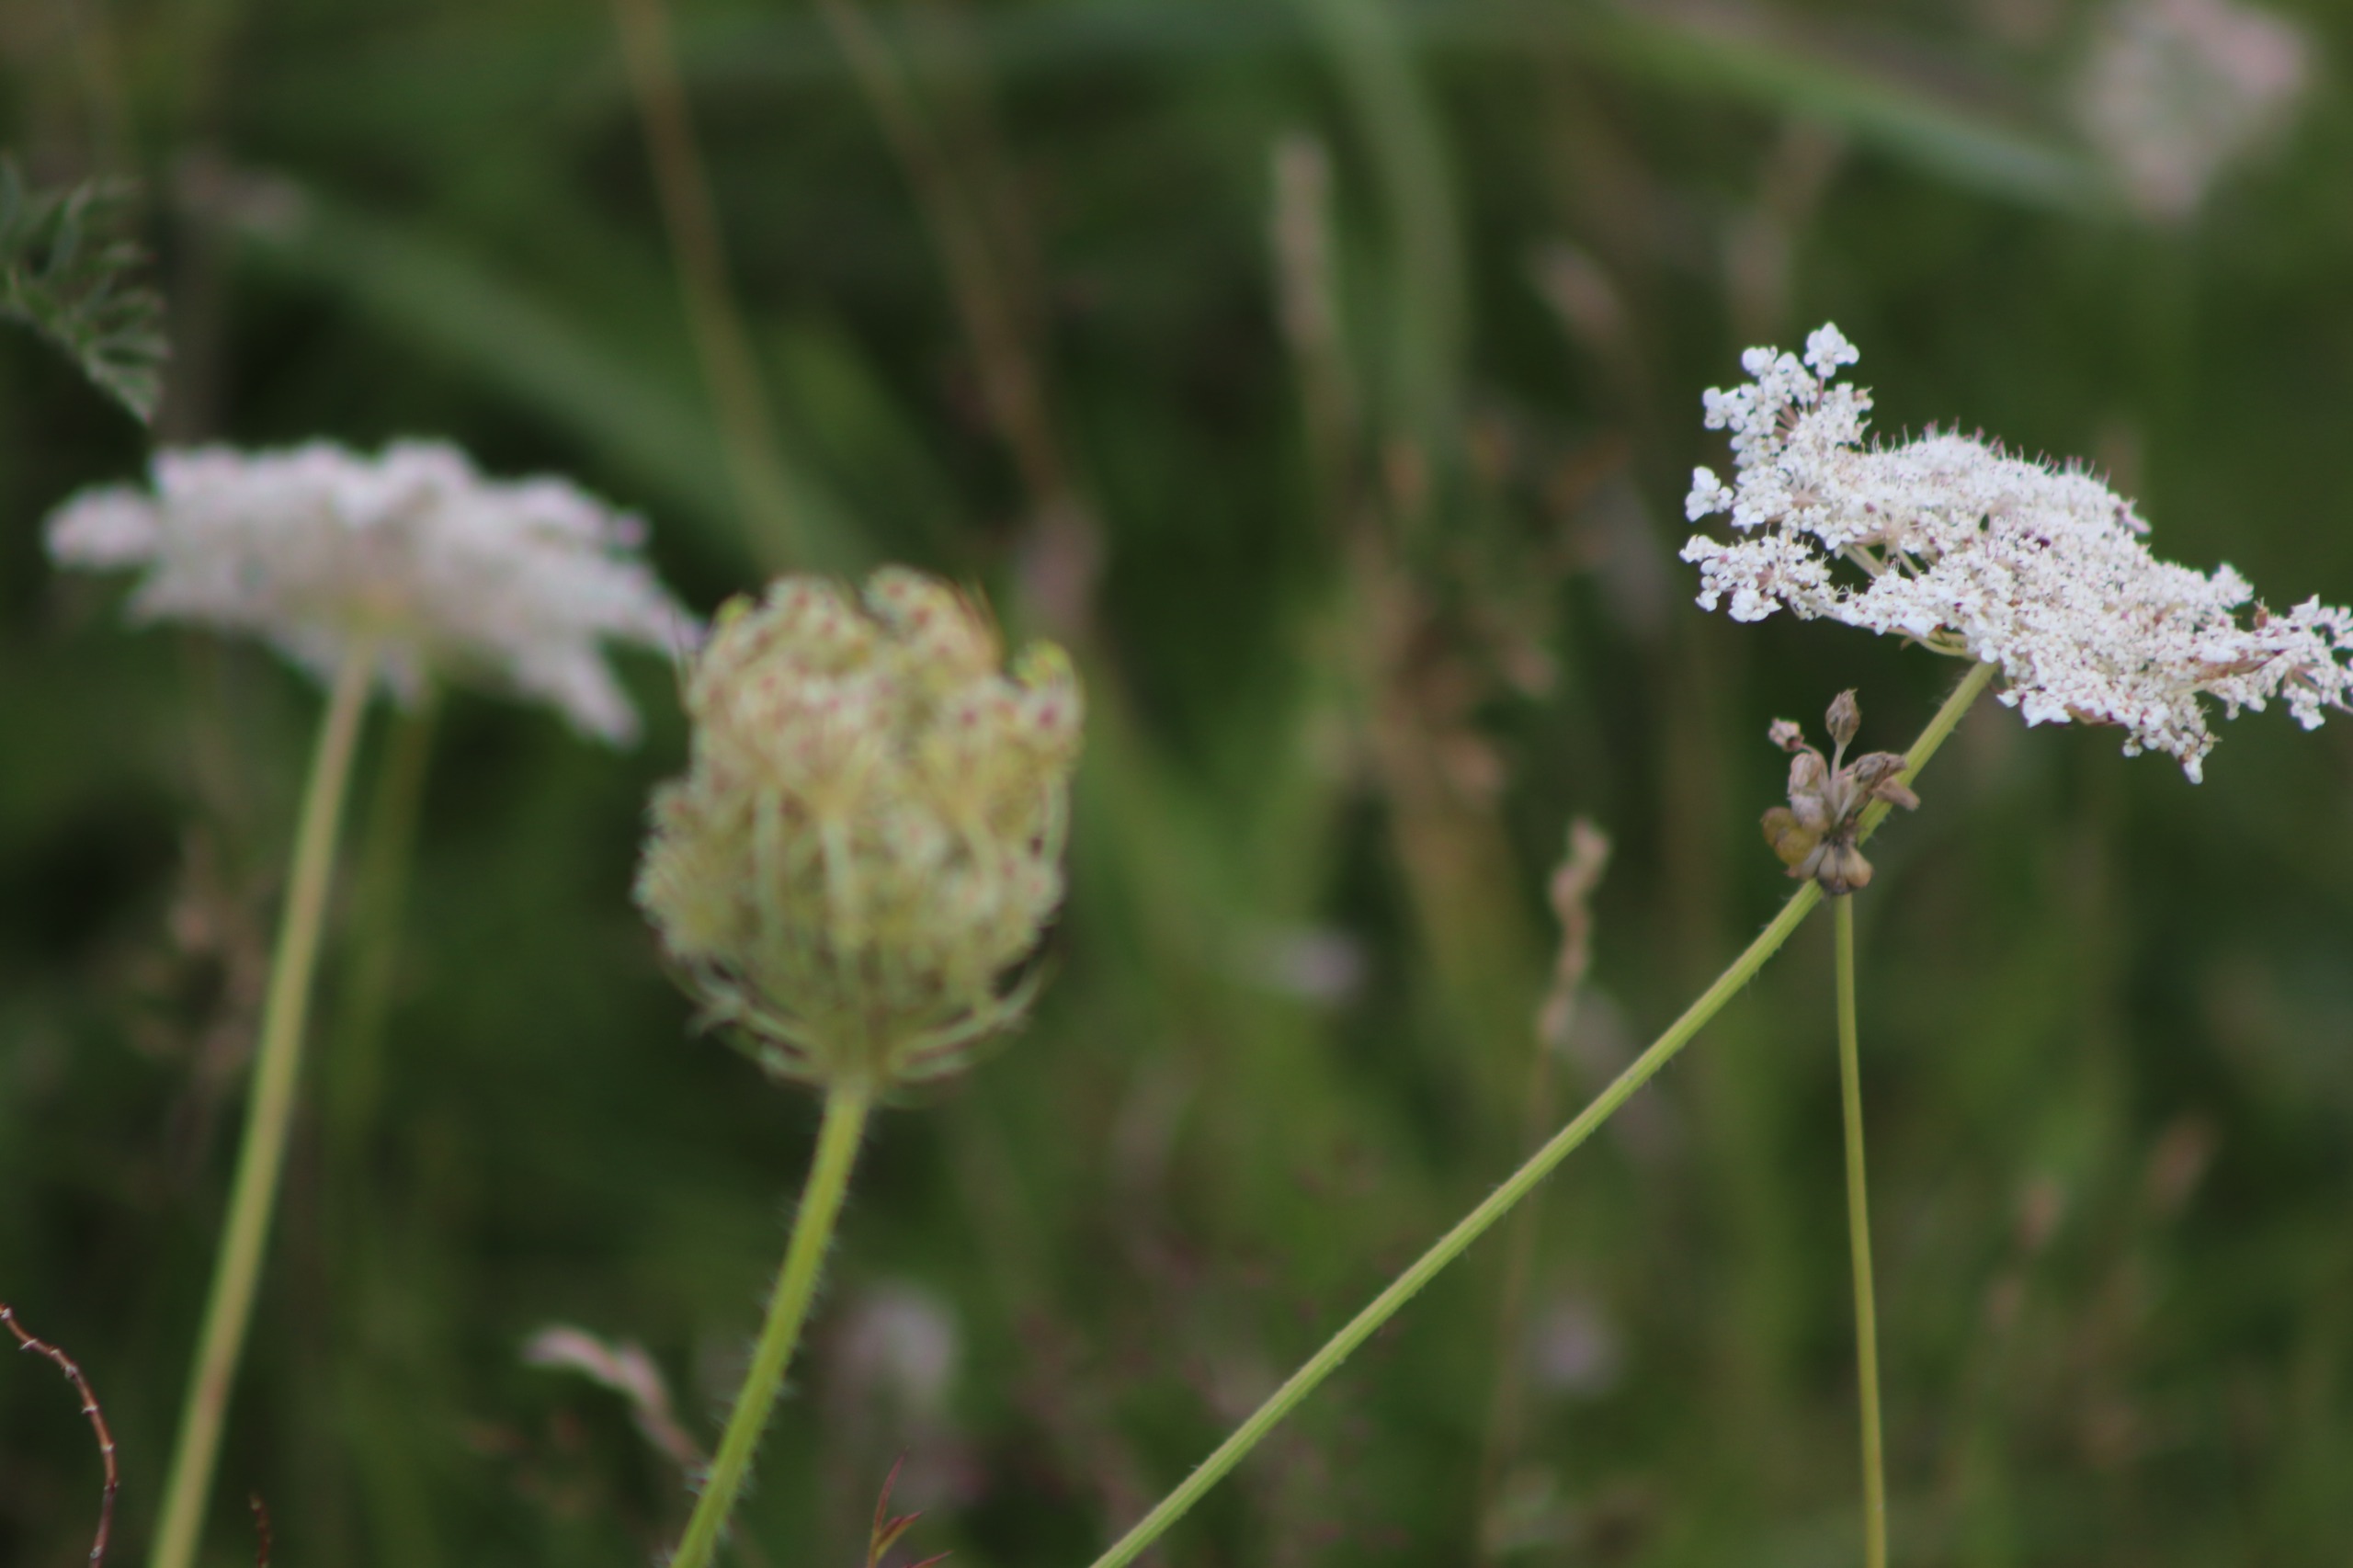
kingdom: Plantae
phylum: Tracheophyta
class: Magnoliopsida
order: Apiales
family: Apiaceae
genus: Daucus
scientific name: Daucus carota
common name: Gulerod
